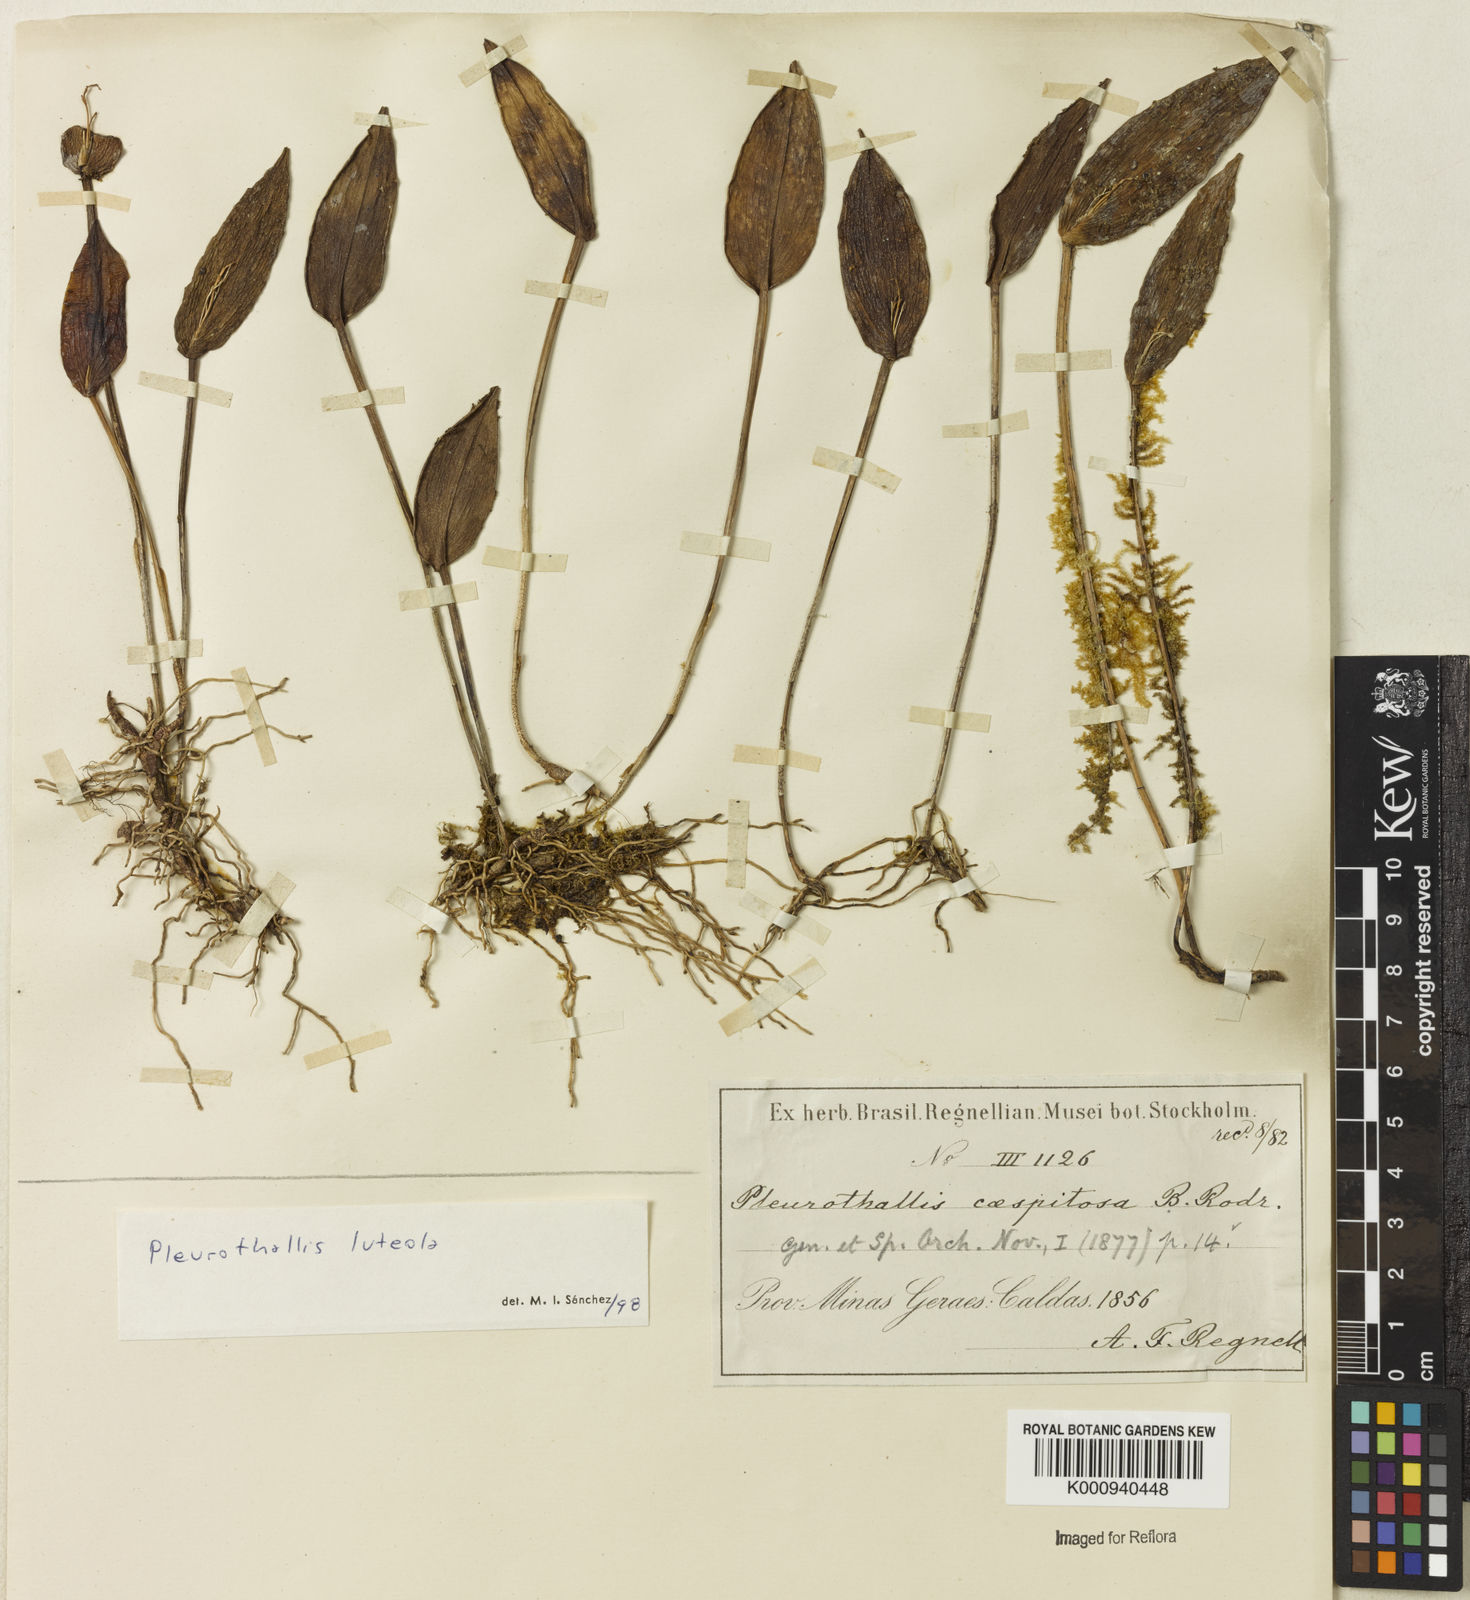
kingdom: Plantae
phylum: Tracheophyta
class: Liliopsida
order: Asparagales
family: Orchidaceae
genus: Acianthera
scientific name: Acianthera luteola
